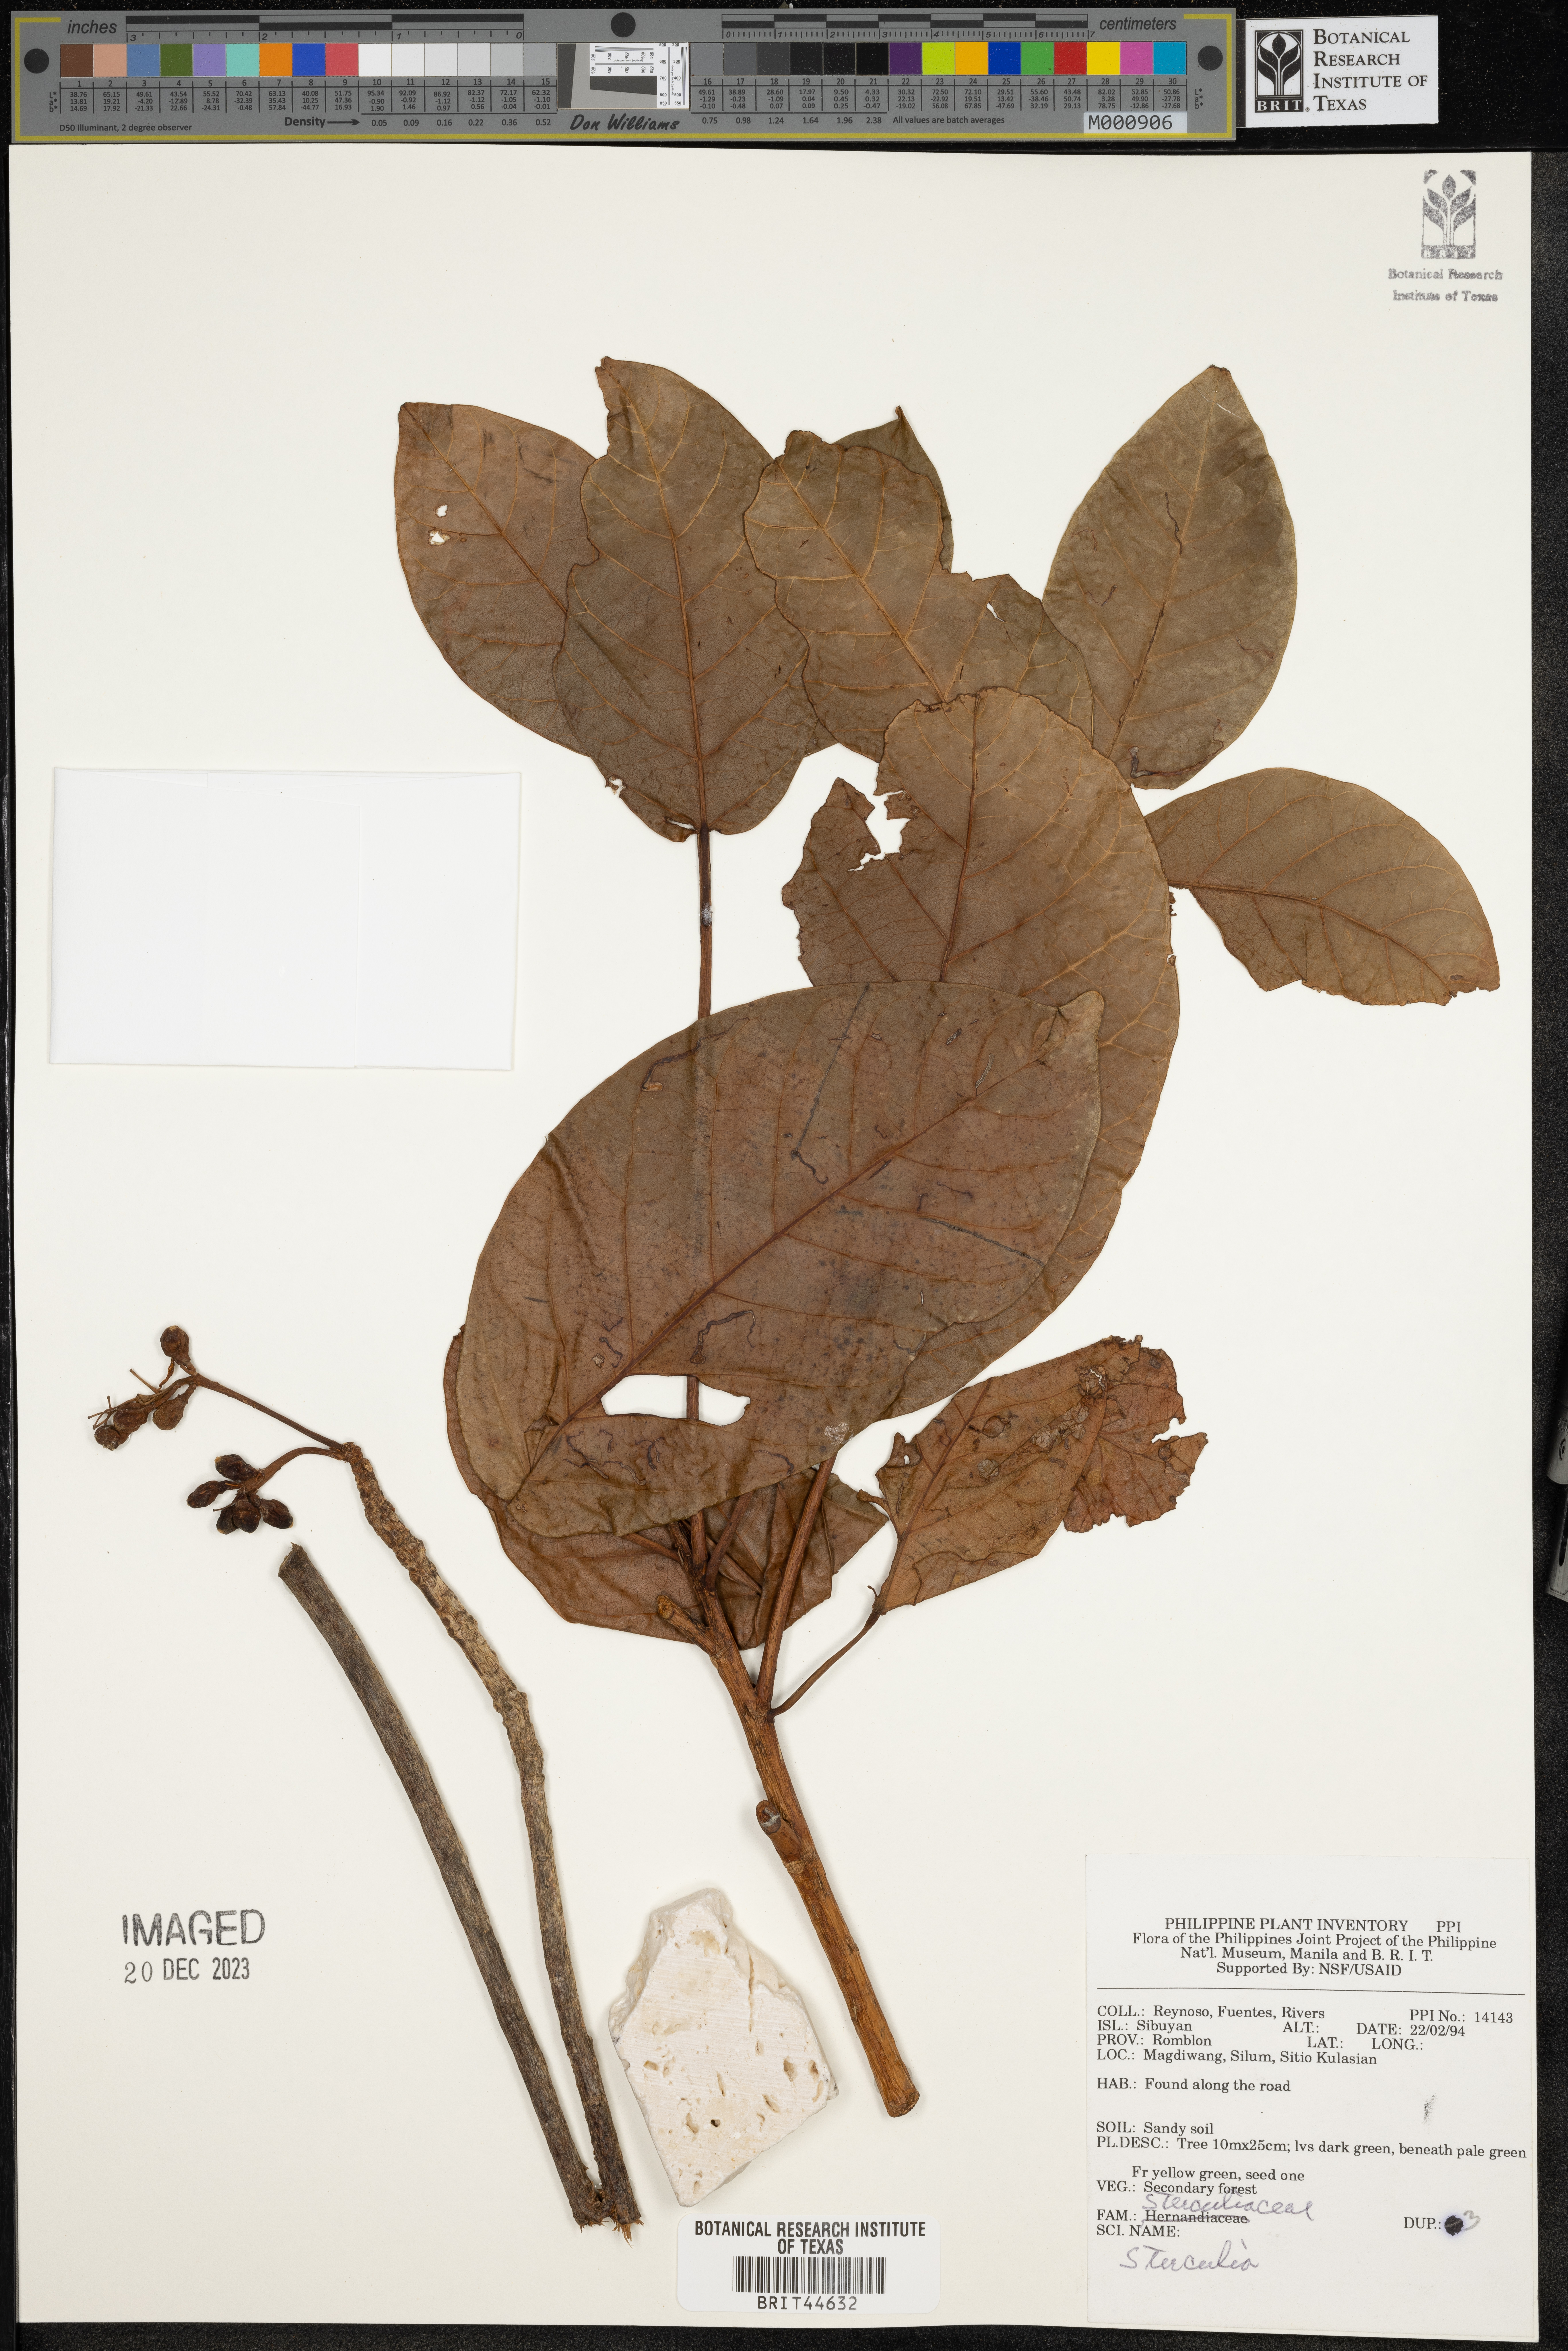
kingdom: Plantae
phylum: Tracheophyta
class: Magnoliopsida
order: Malvales
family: Malvaceae
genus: Sterculia
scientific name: Sterculia
